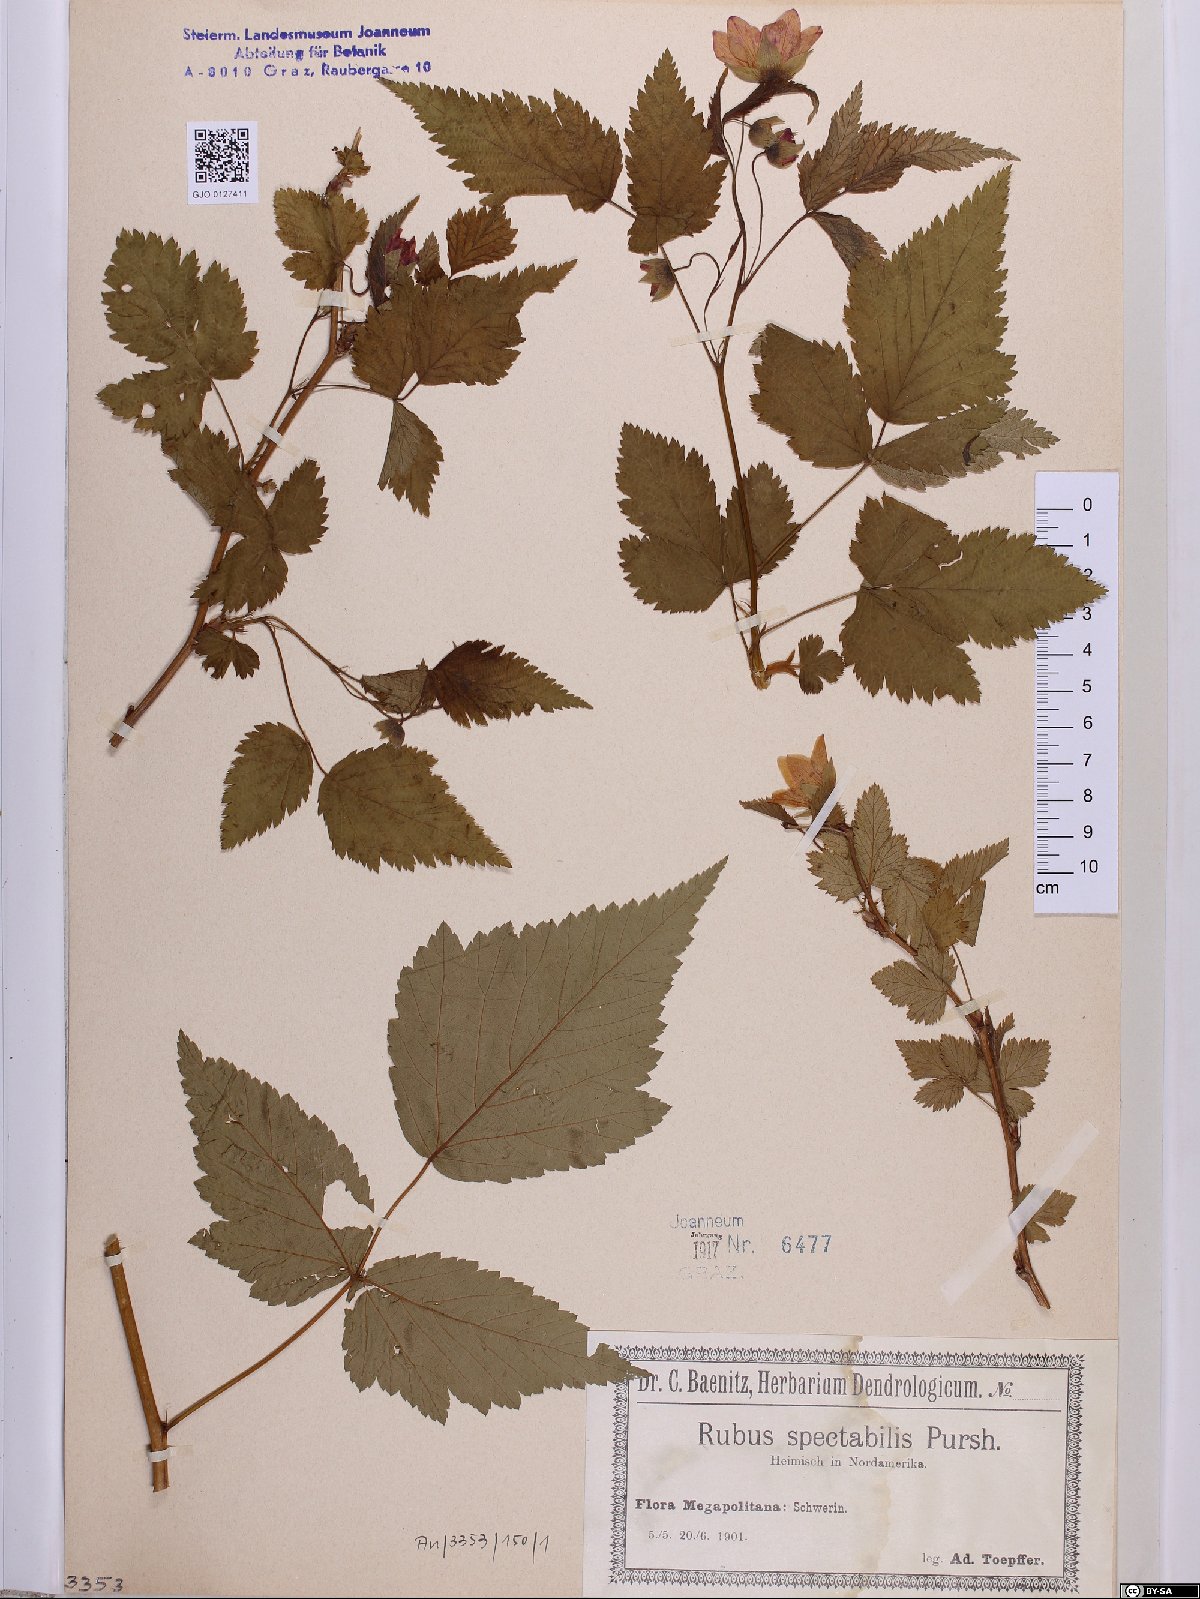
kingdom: Plantae
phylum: Tracheophyta
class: Magnoliopsida
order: Rosales
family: Rosaceae
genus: Rubus
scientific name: Rubus spectabilis
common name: Salmonberry
